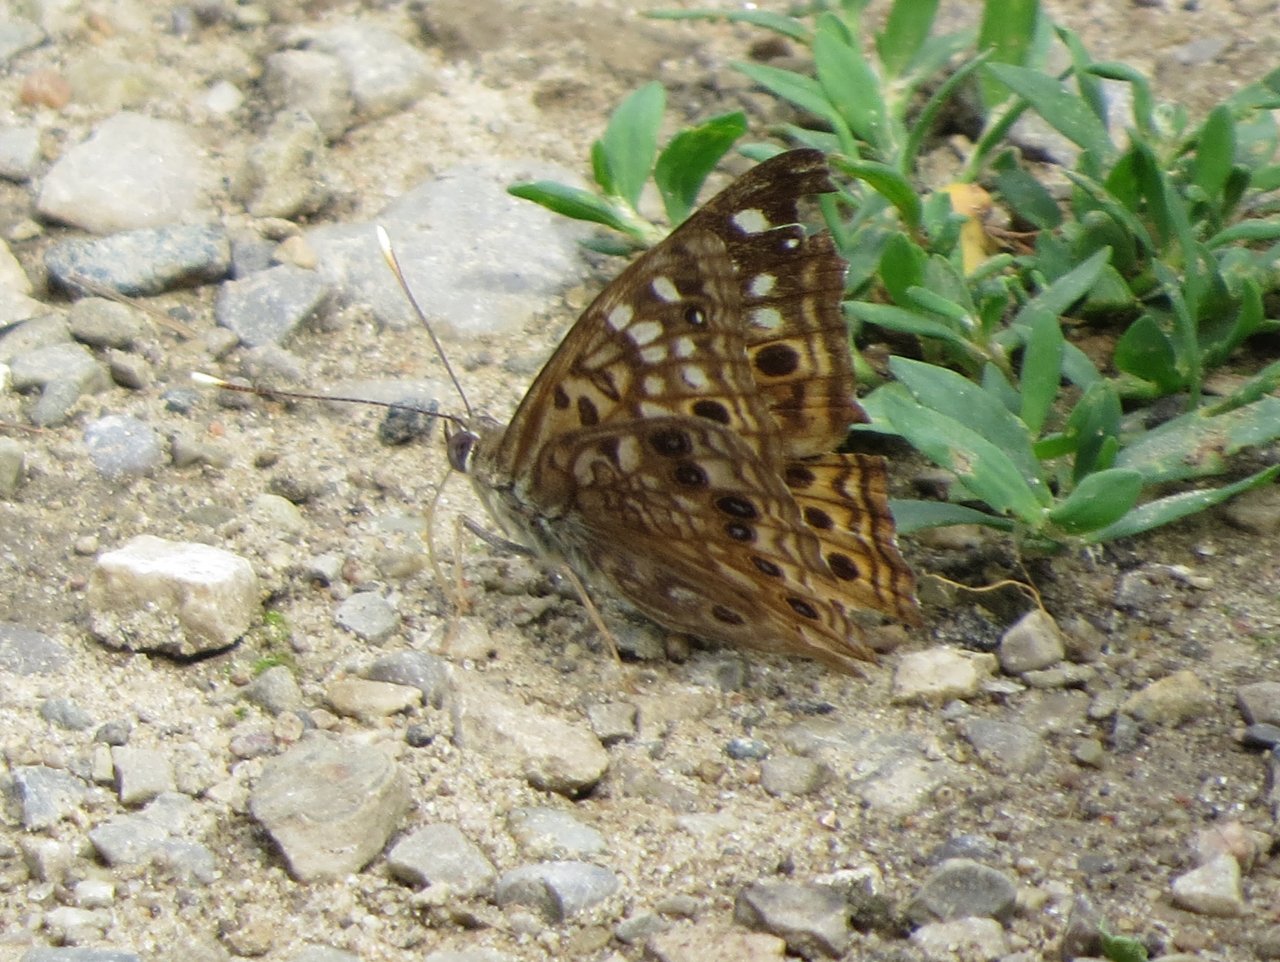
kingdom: Animalia
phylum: Arthropoda
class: Insecta
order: Lepidoptera
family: Nymphalidae
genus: Asterocampa
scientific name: Asterocampa celtis
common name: Hackberry Emperor
